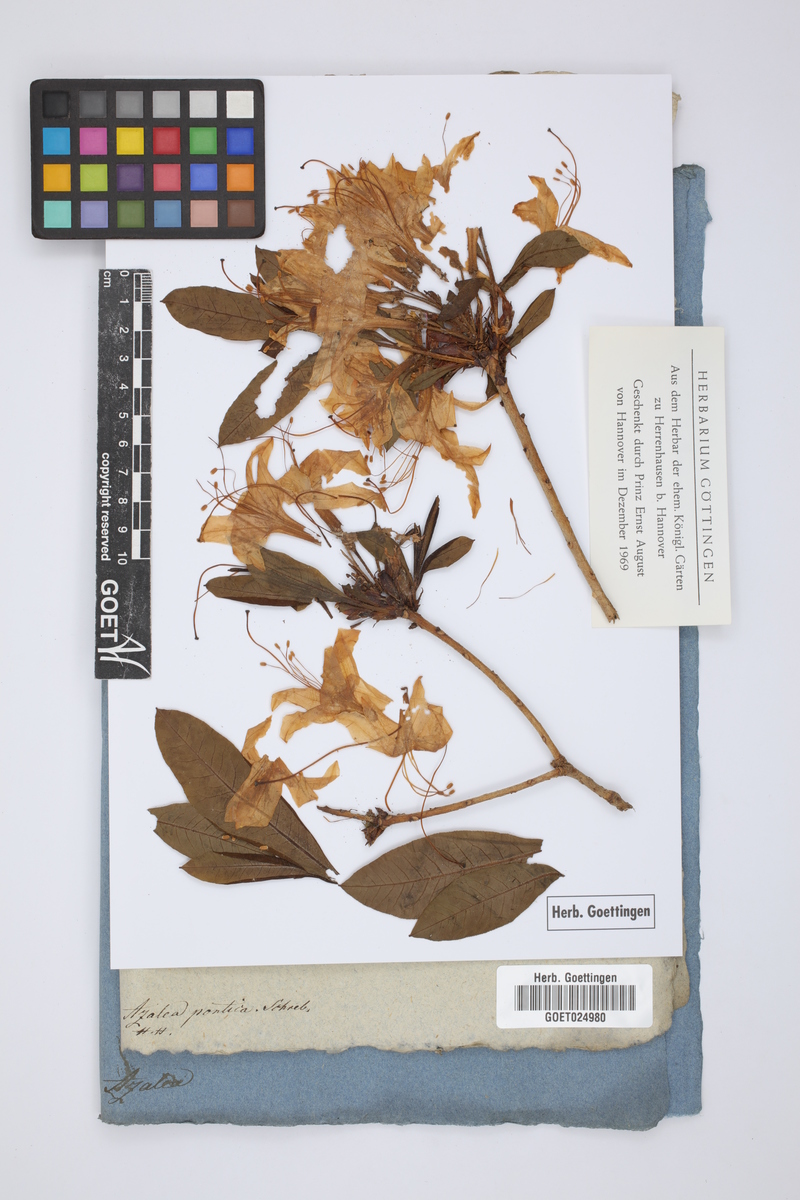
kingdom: Plantae
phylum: Tracheophyta
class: Magnoliopsida
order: Ericales
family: Ericaceae
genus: Rhododendron
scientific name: Rhododendron luteum
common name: Yellow azalea
